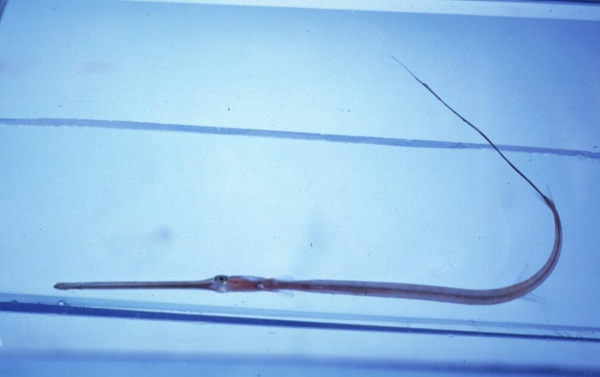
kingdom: Animalia
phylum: Chordata
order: Syngnathiformes
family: Fistulariidae
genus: Fistularia
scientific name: Fistularia
